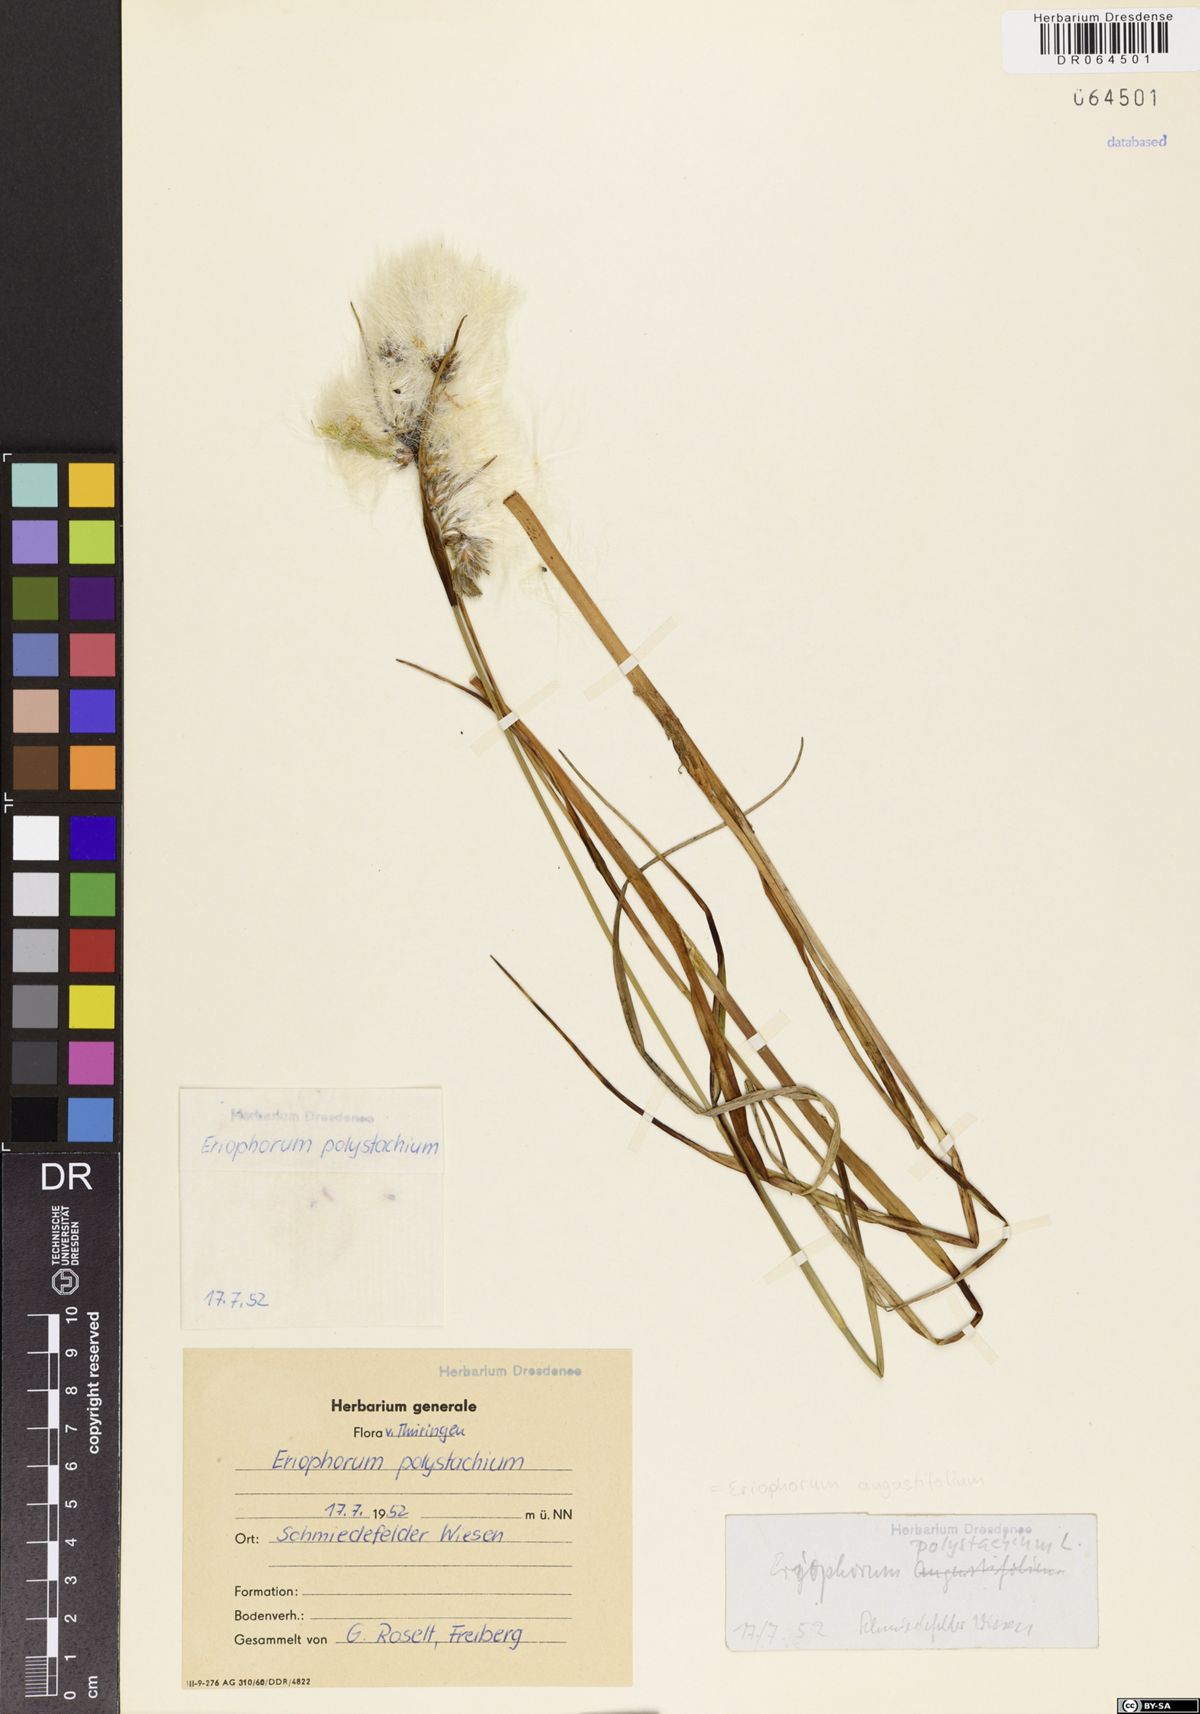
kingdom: Plantae
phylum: Tracheophyta
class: Liliopsida
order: Poales
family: Cyperaceae
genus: Eriophorum
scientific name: Eriophorum angustifolium
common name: Common cottongrass
